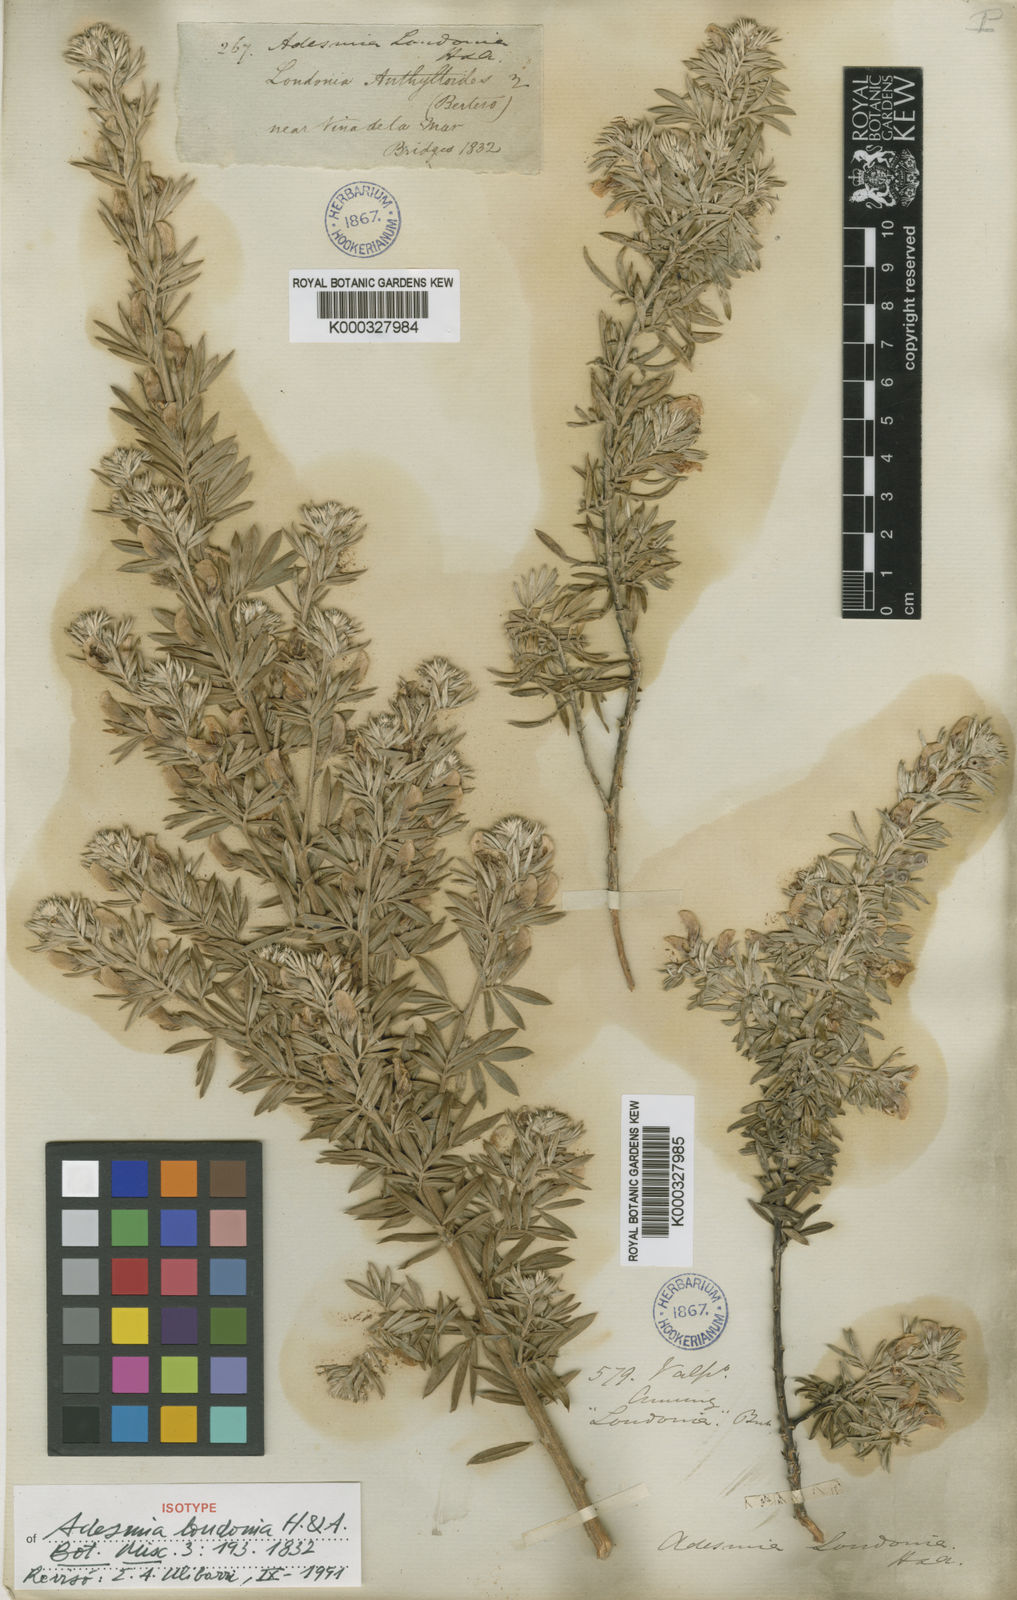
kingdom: Plantae
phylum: Tracheophyta
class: Magnoliopsida
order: Fabales
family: Fabaceae
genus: Adesmia
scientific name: Adesmia loudonia
